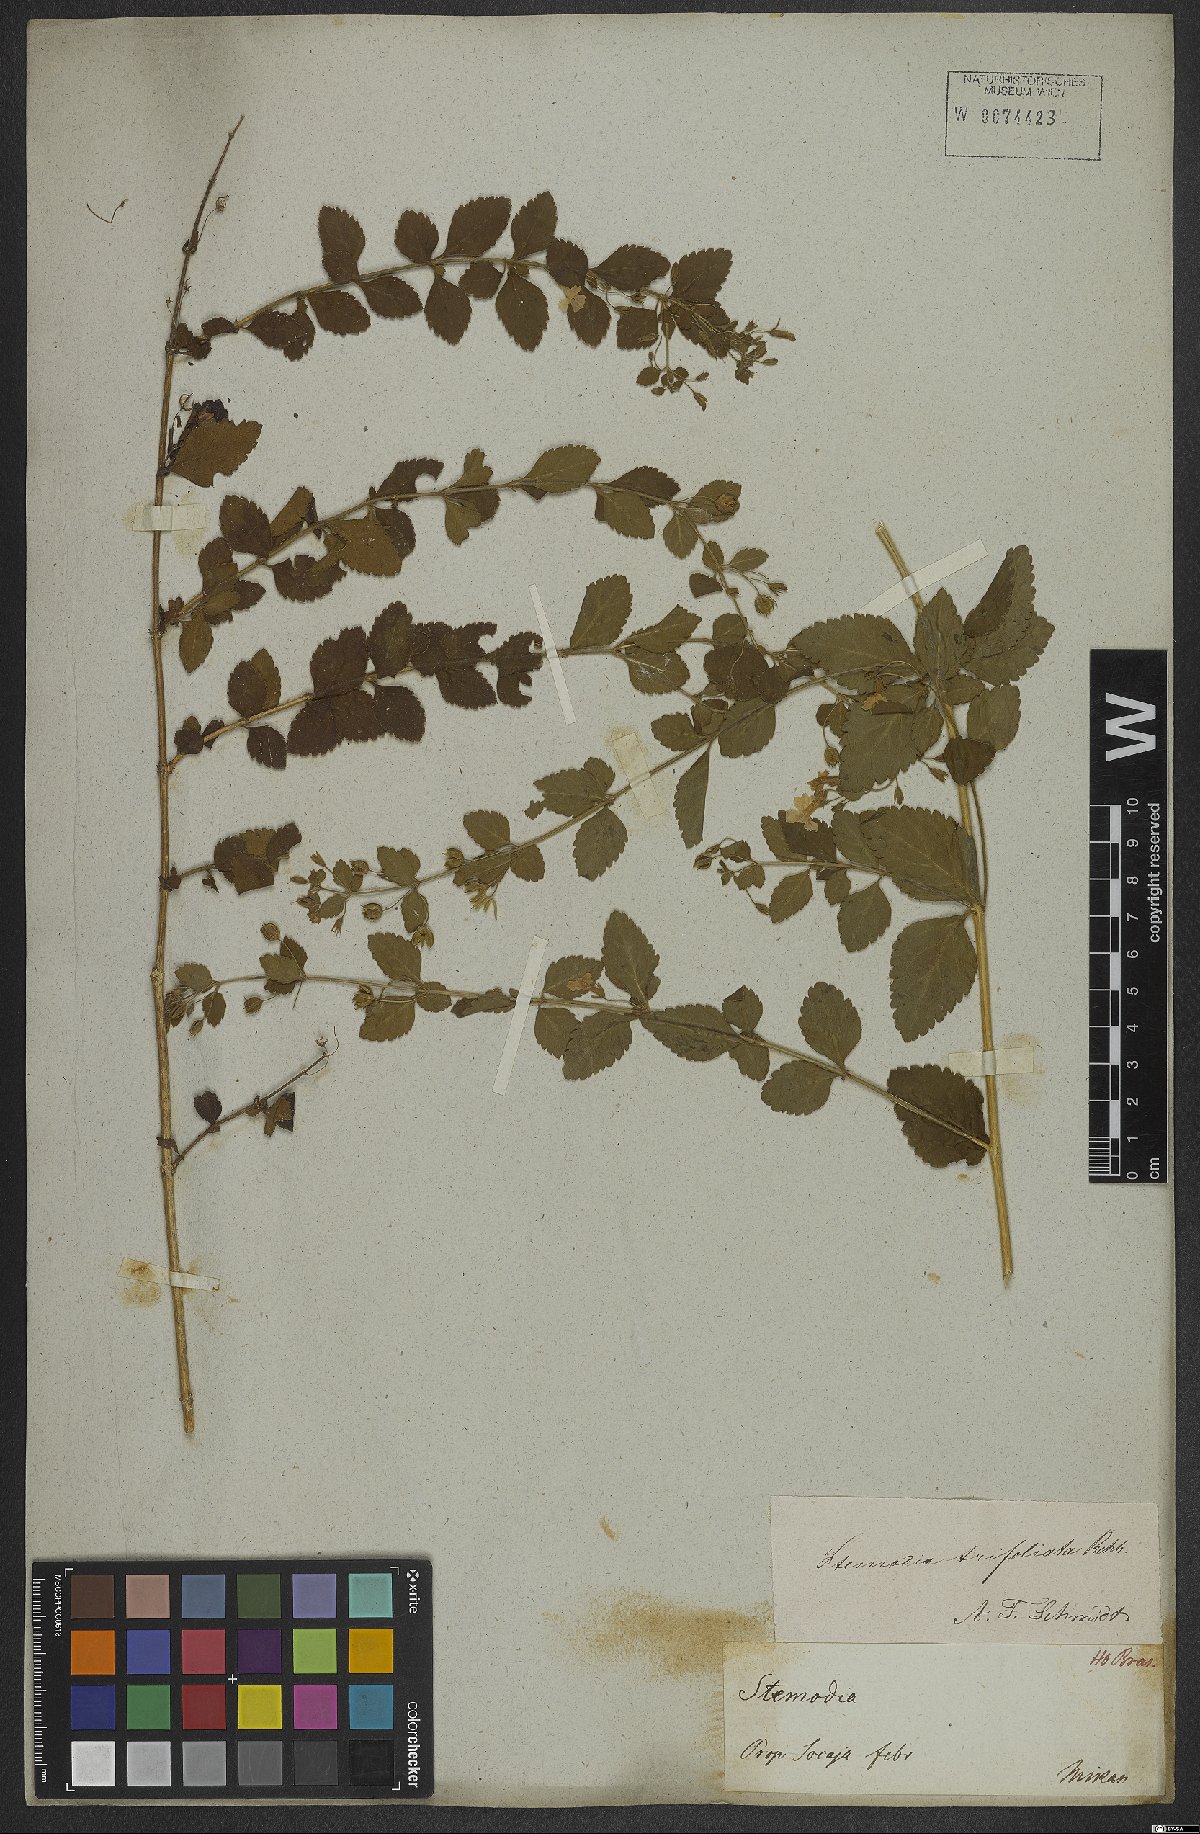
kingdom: Plantae
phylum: Tracheophyta
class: Magnoliopsida
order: Lamiales
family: Plantaginaceae
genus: Stemodia
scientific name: Stemodia trifoliata
